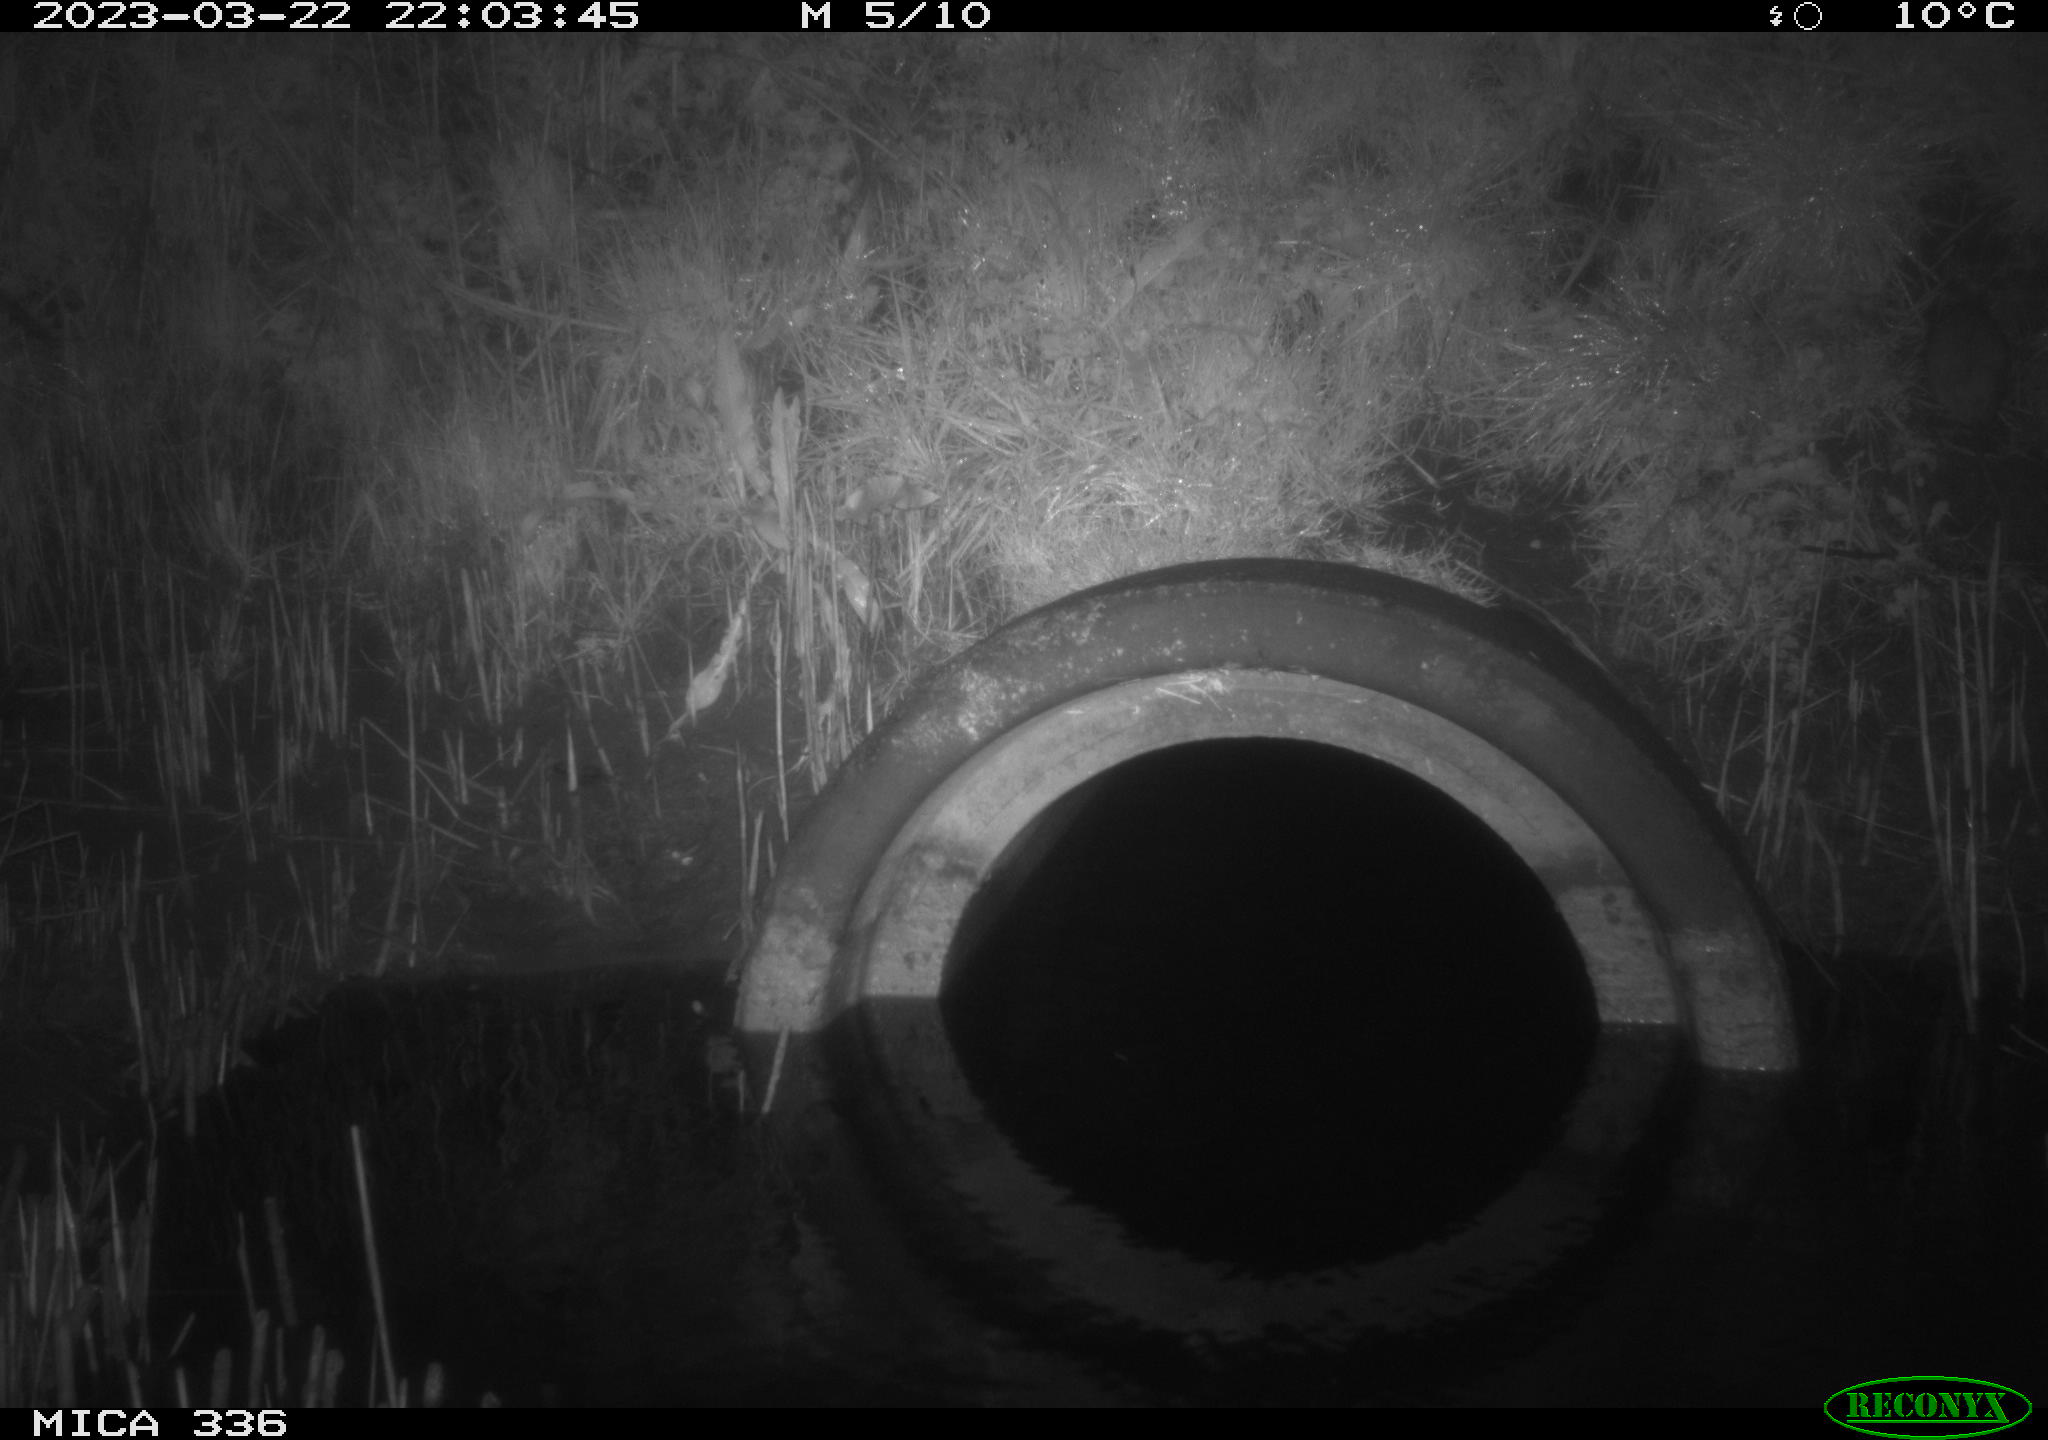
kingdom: Animalia
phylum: Chordata
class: Mammalia
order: Rodentia
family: Muridae
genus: Rattus
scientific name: Rattus norvegicus
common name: Brown rat
